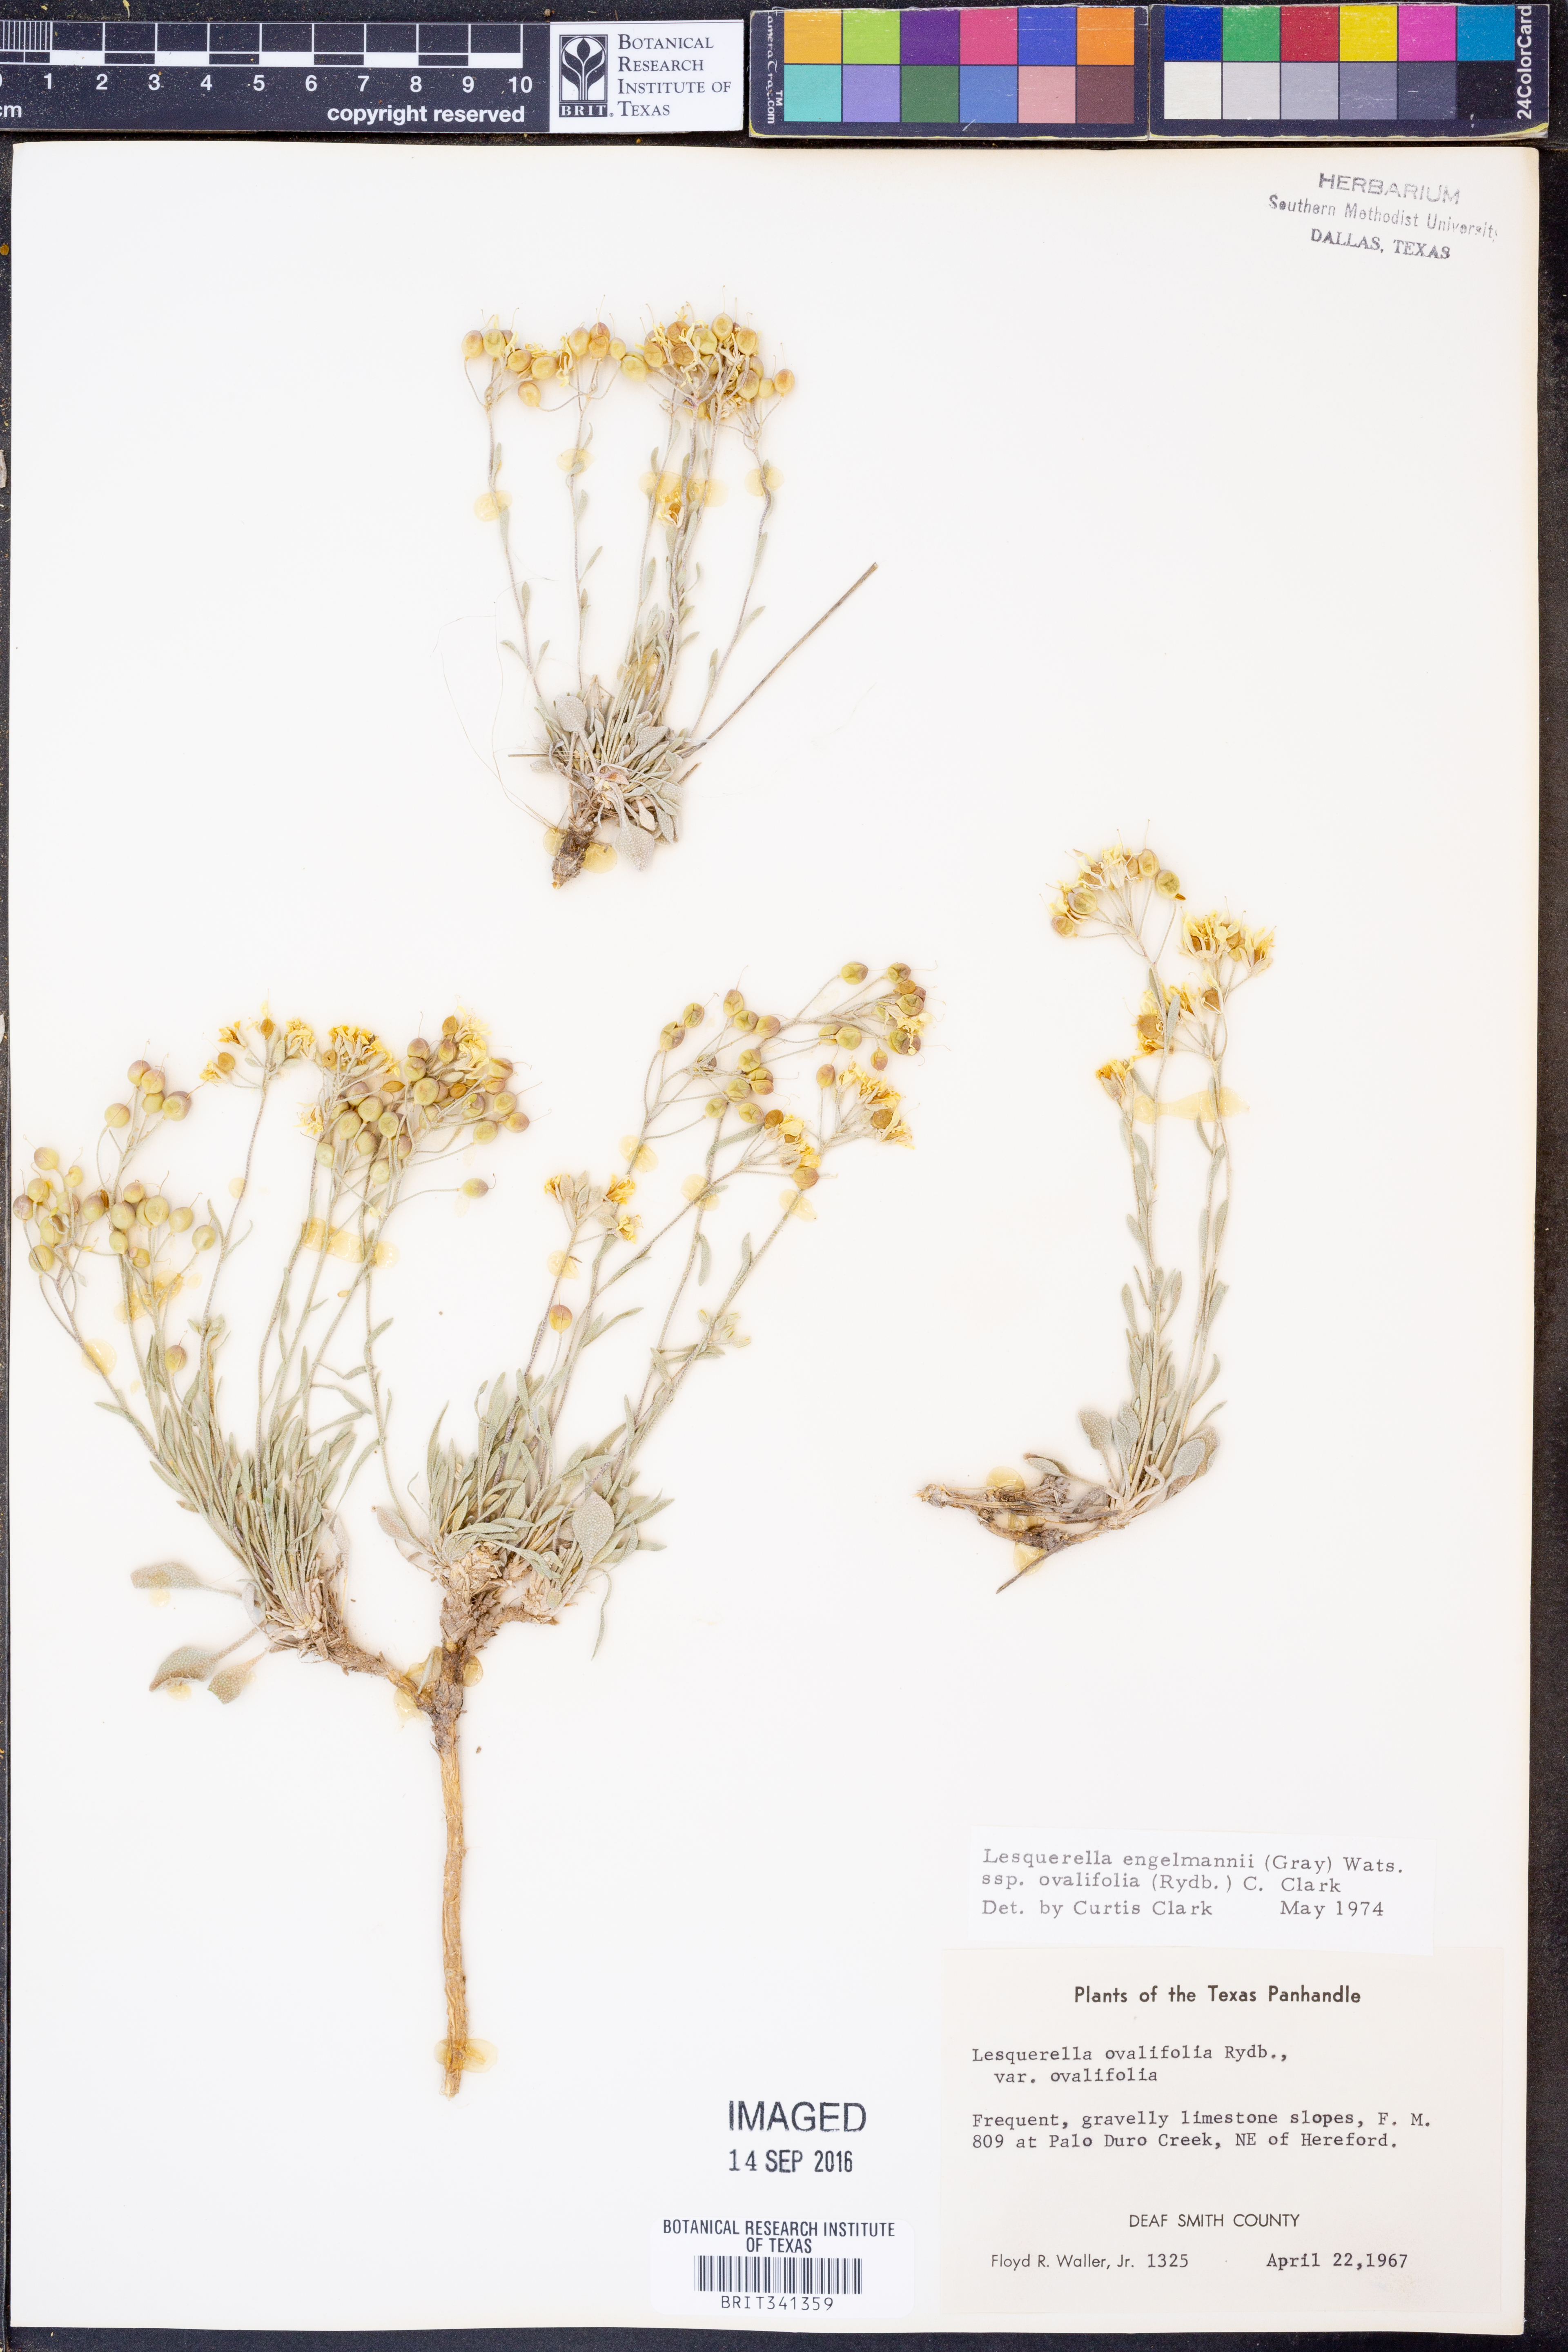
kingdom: Plantae
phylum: Tracheophyta
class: Magnoliopsida
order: Brassicales
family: Brassicaceae
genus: Physaria
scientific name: Physaria ovalifolia
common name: Round-leaf bladderpod
